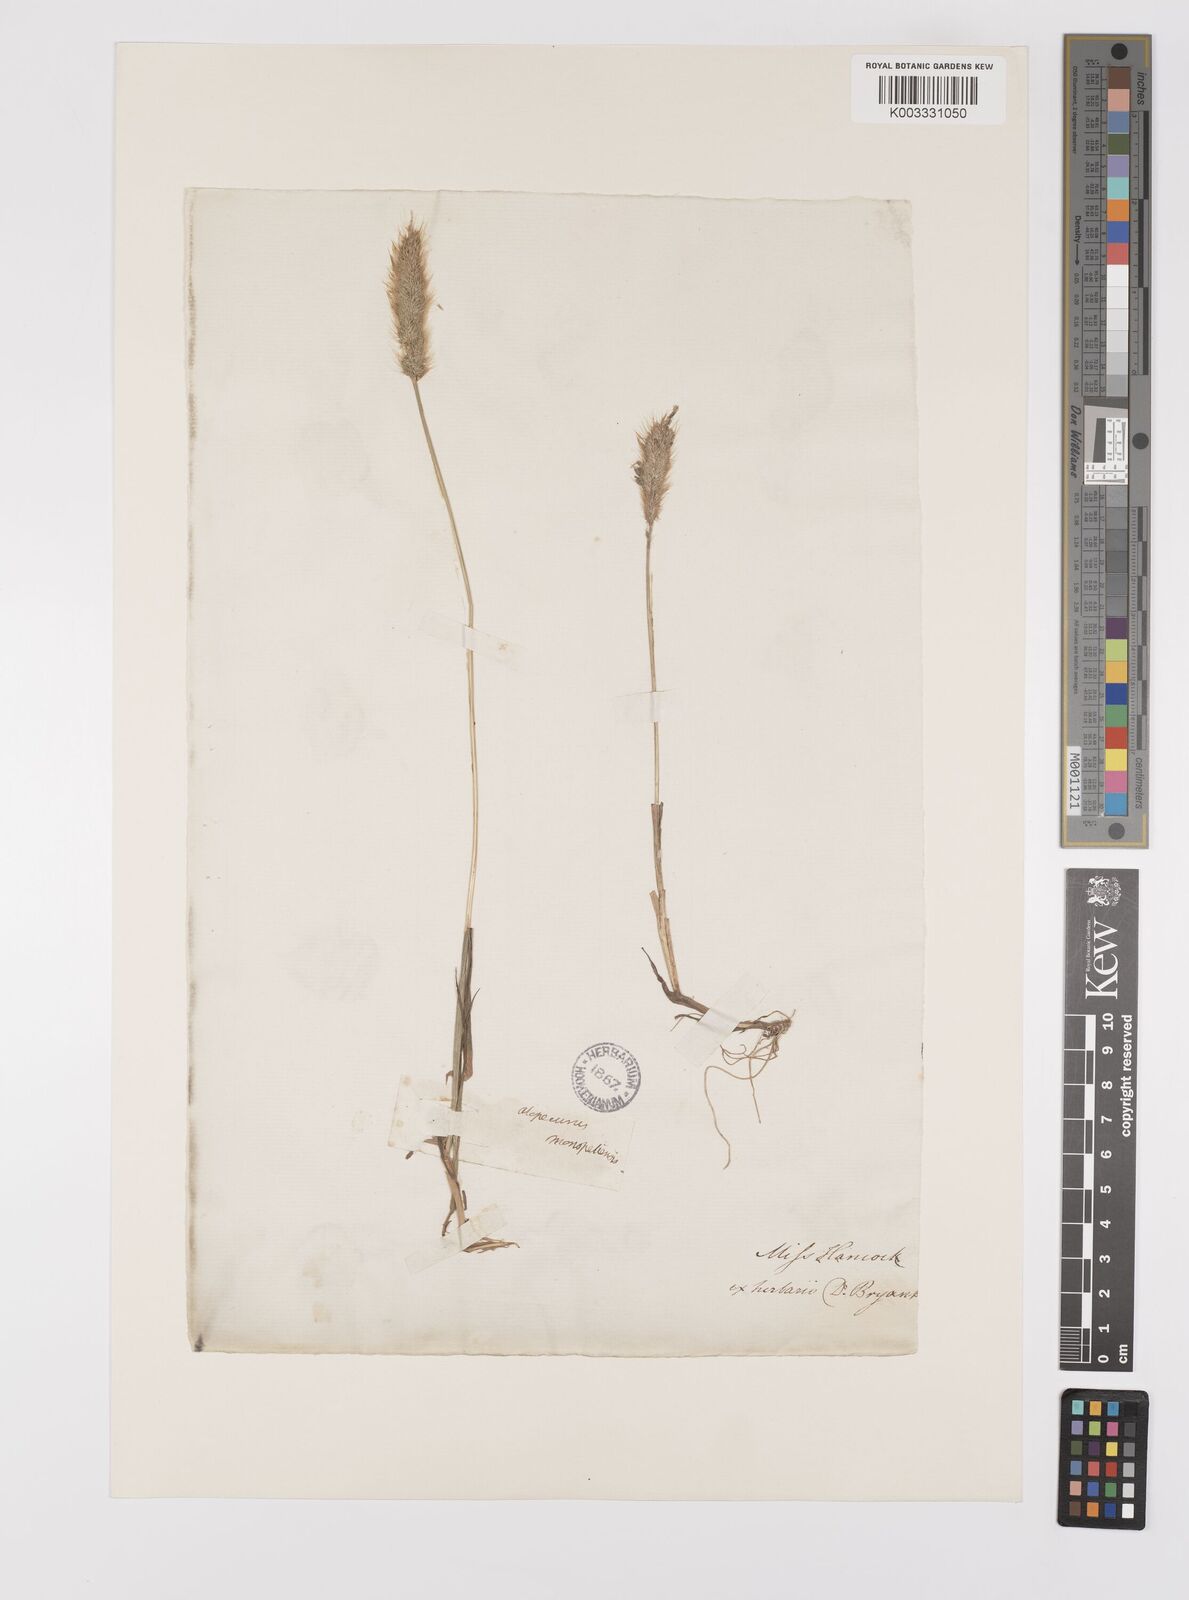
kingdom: Plantae
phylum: Tracheophyta
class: Liliopsida
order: Poales
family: Poaceae
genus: Polypogon
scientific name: Polypogon monspeliensis
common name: Annual rabbitsfoot grass
